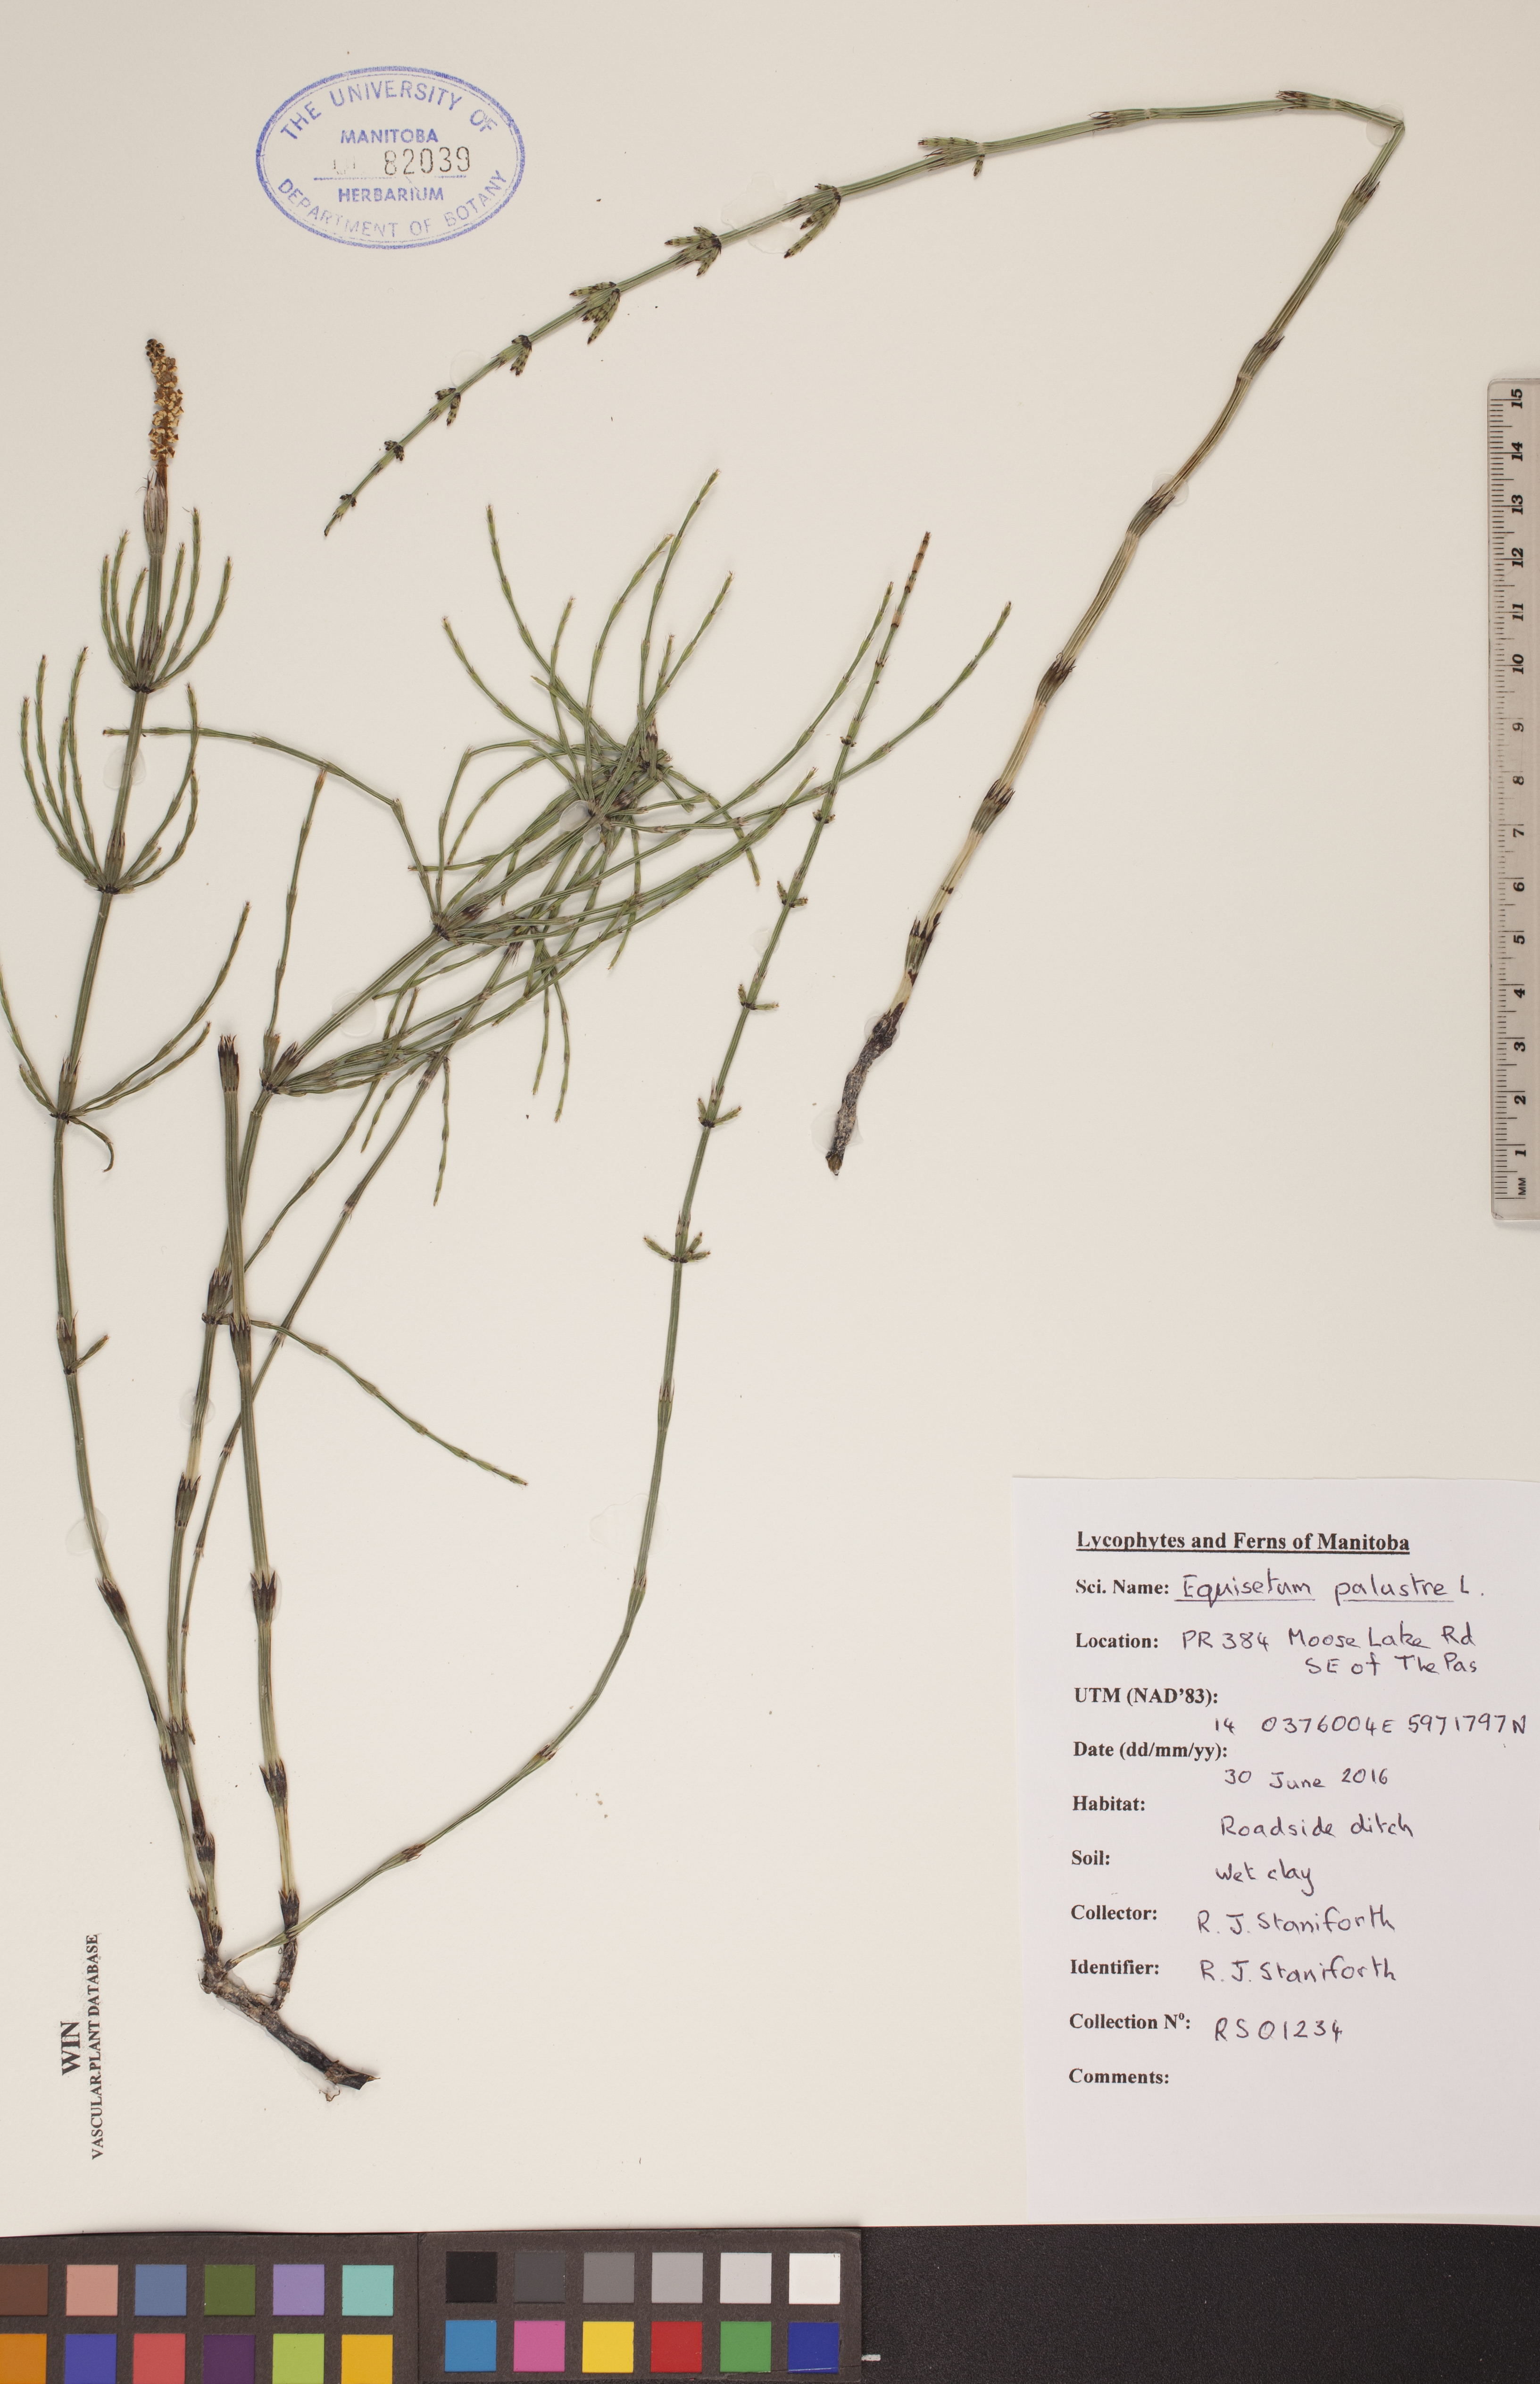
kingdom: Plantae
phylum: Tracheophyta
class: Polypodiopsida
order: Equisetales
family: Equisetaceae
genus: Equisetum
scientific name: Equisetum palustre
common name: Marsh horsetail
